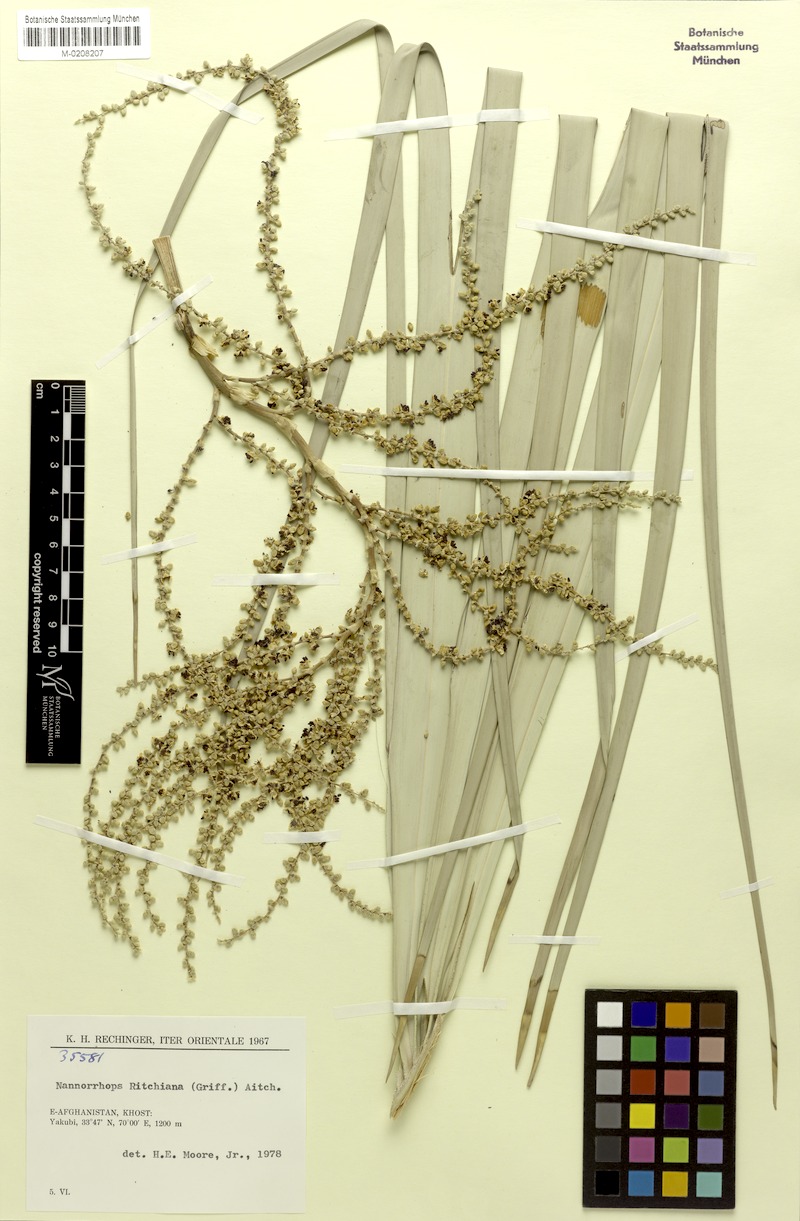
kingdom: Plantae
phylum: Tracheophyta
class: Liliopsida
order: Arecales
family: Arecaceae
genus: Nannorrhops
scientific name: Nannorrhops ritchieana
